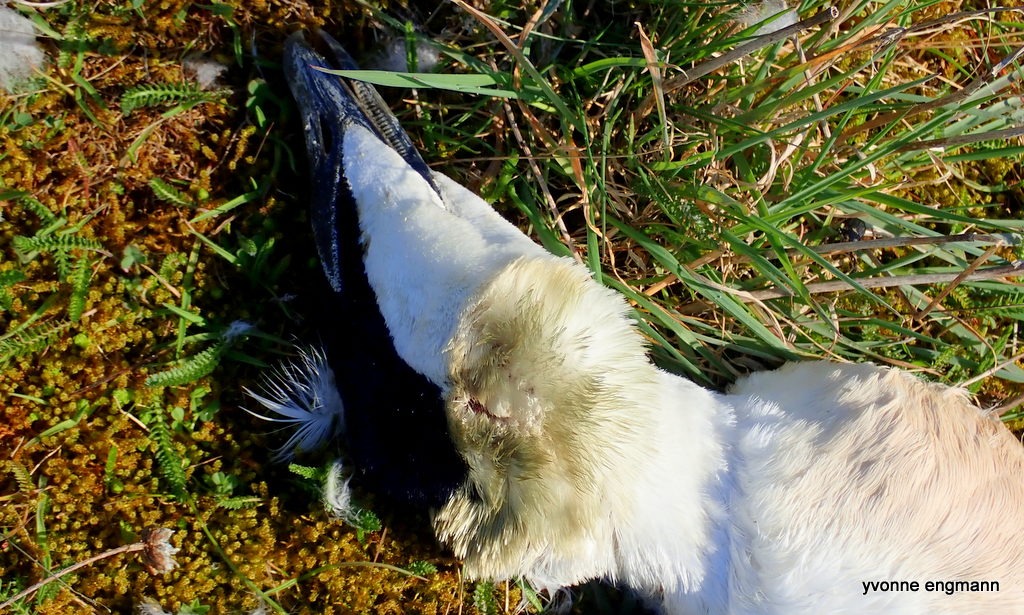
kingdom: Animalia
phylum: Chordata
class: Aves
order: Anseriformes
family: Anatidae
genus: Somateria
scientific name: Somateria mollissima
